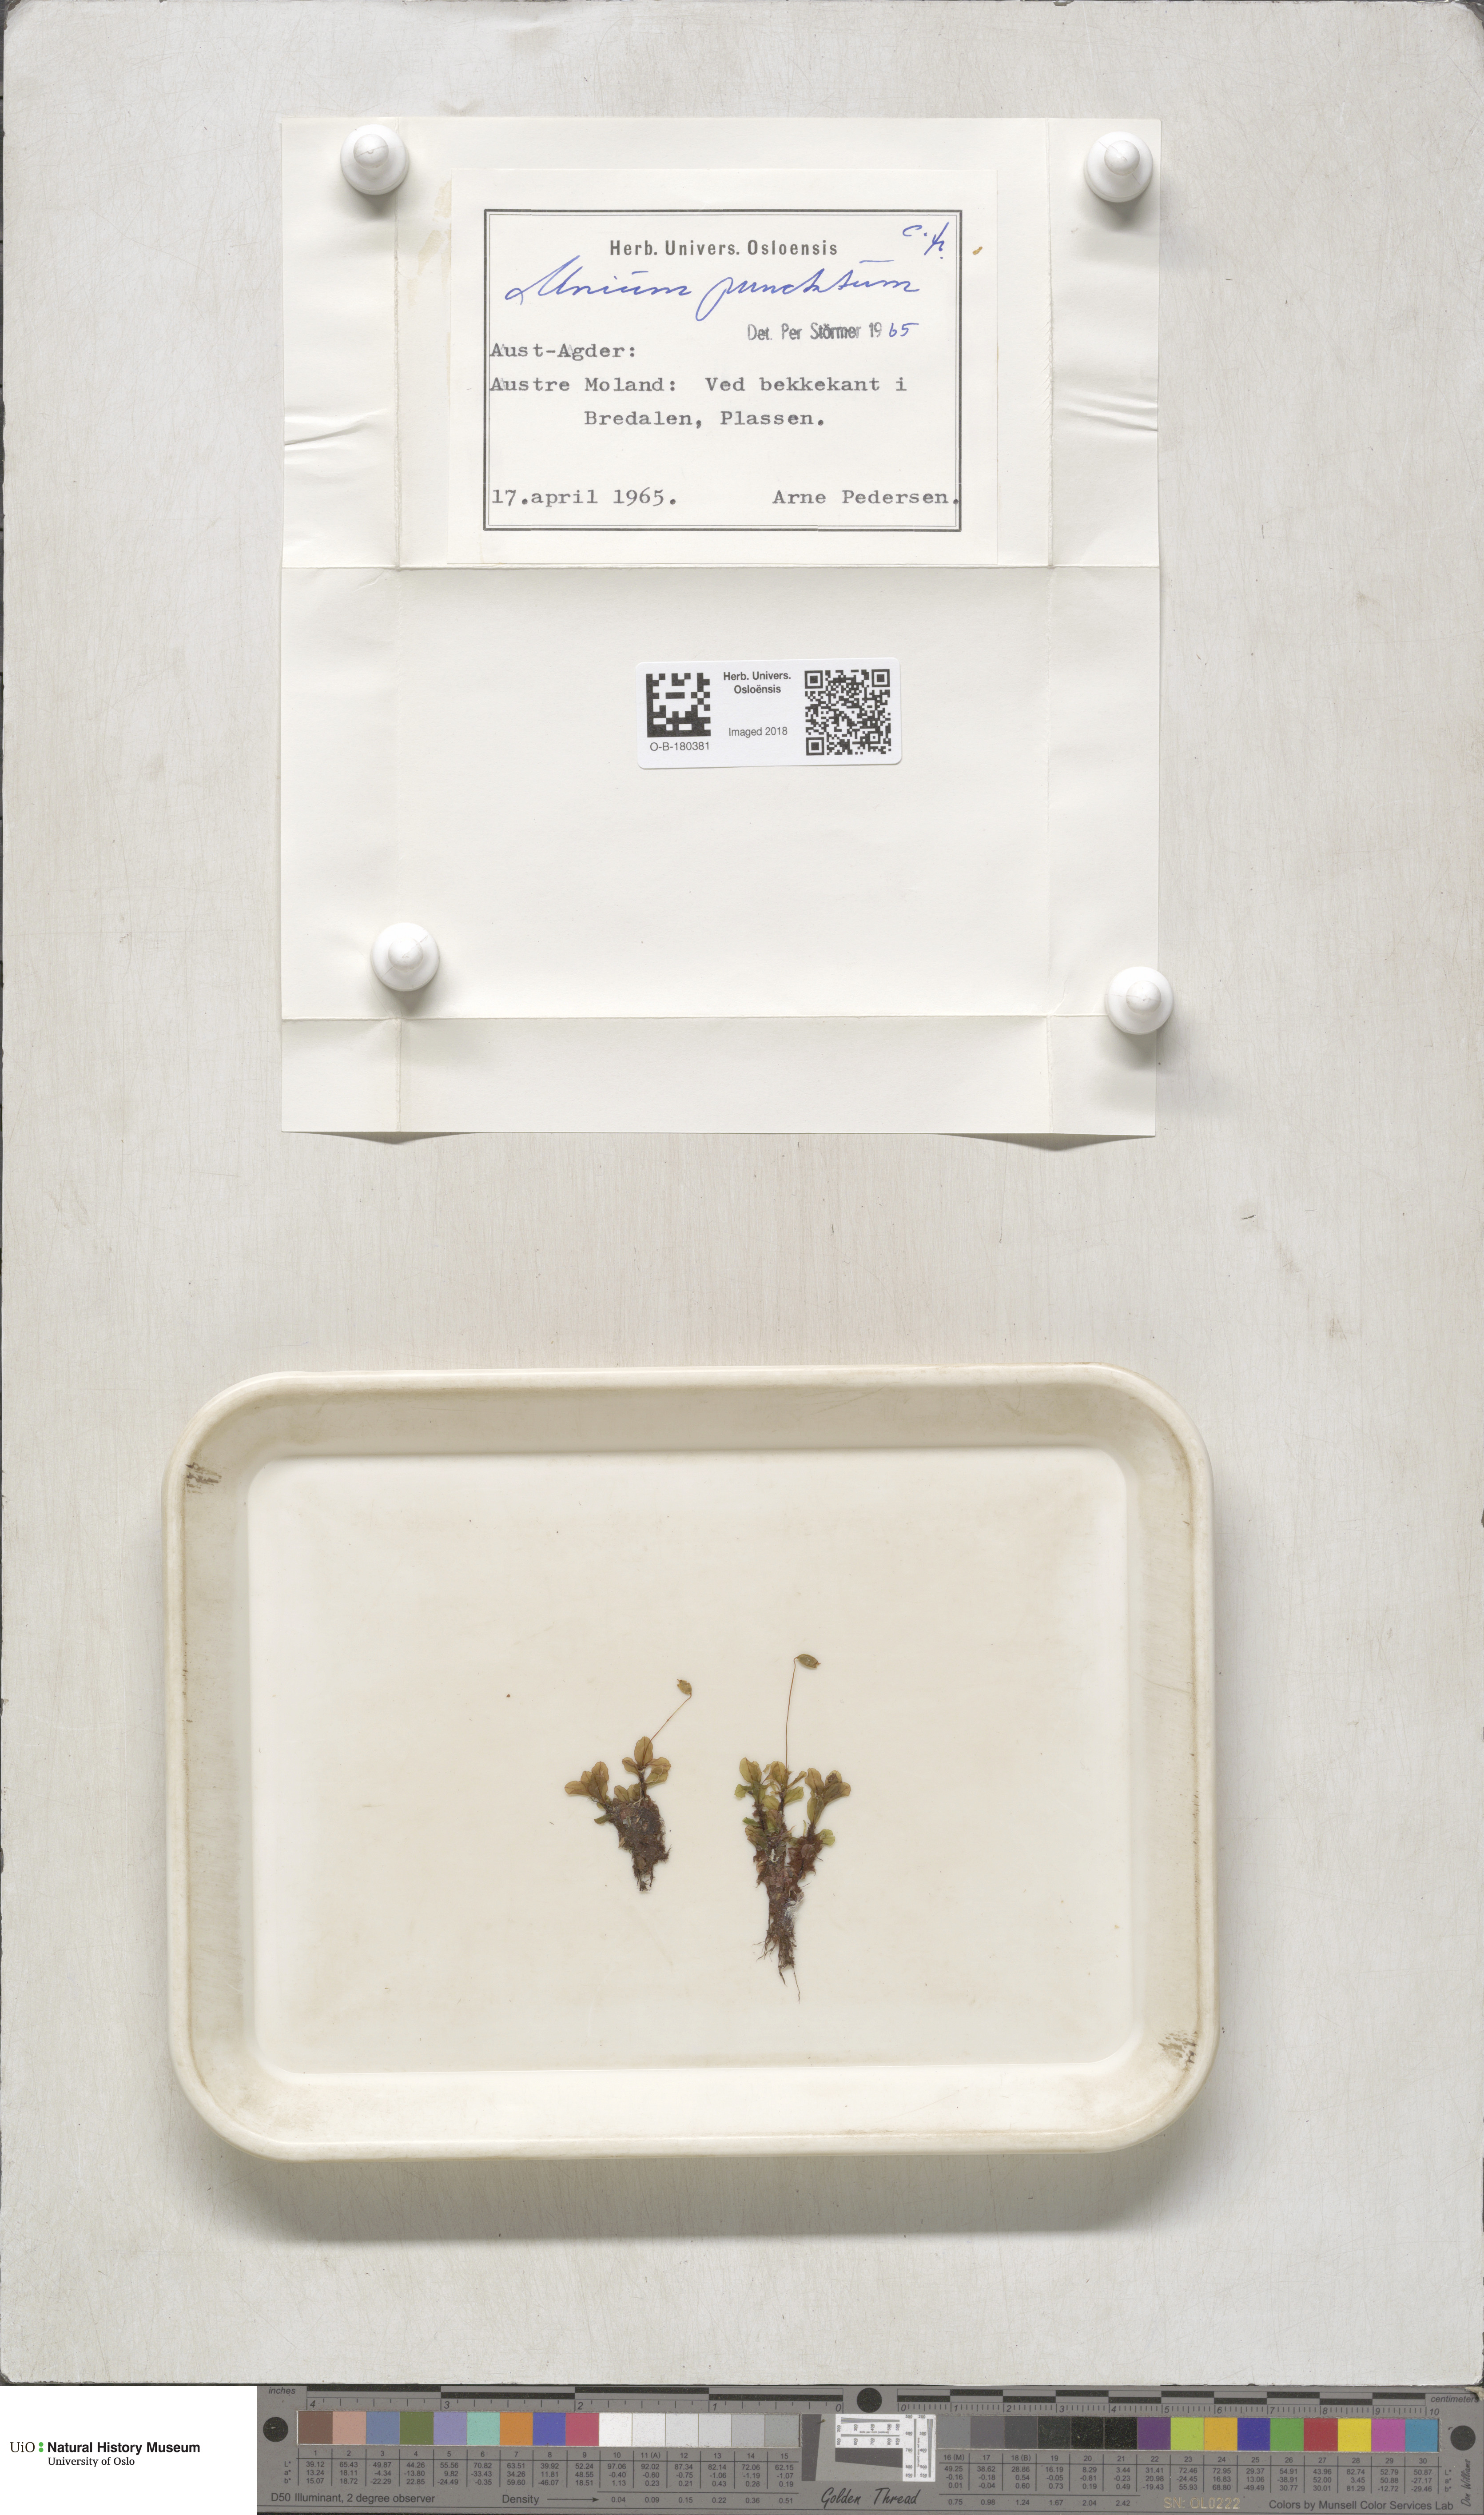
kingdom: Plantae
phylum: Bryophyta
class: Bryopsida
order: Bryales
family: Mniaceae
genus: Rhizomnium
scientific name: Rhizomnium punctatum
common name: Dotted leafy moss
